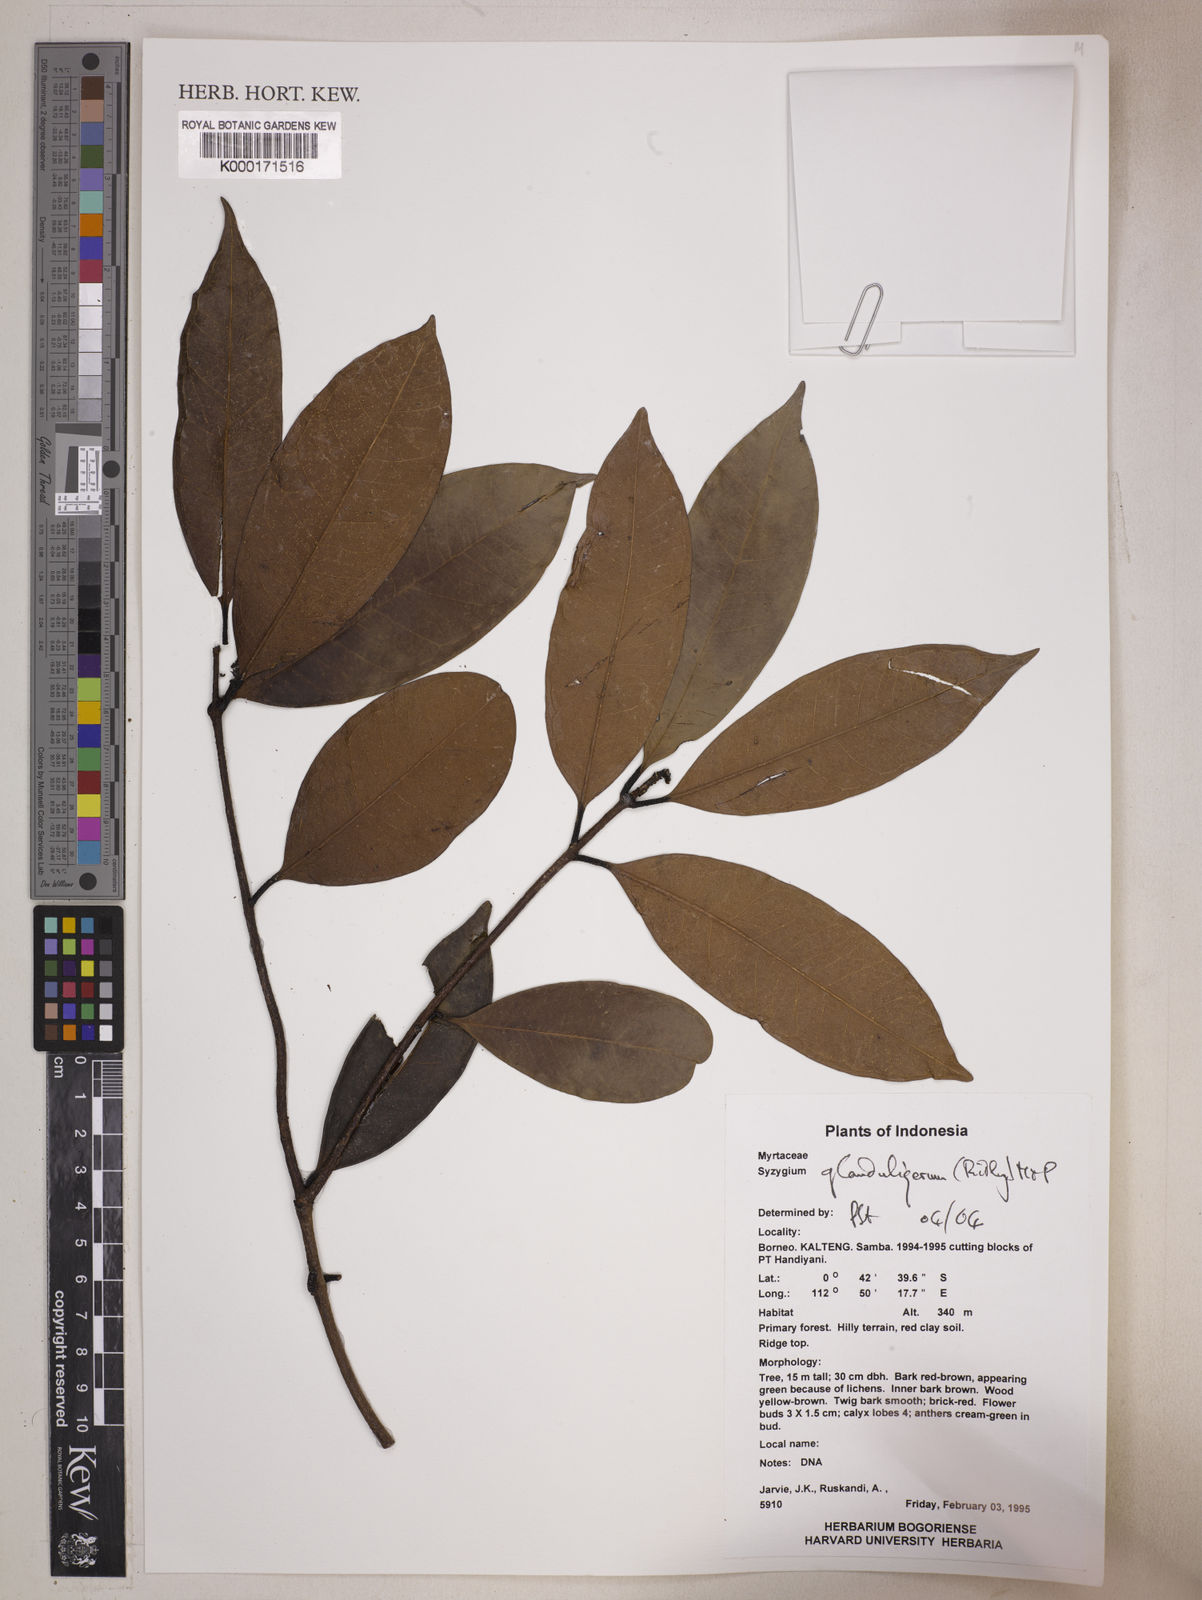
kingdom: Plantae
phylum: Tracheophyta
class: Magnoliopsida
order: Myrtales
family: Myrtaceae
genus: Syzygium
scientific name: Syzygium glanduligerum
